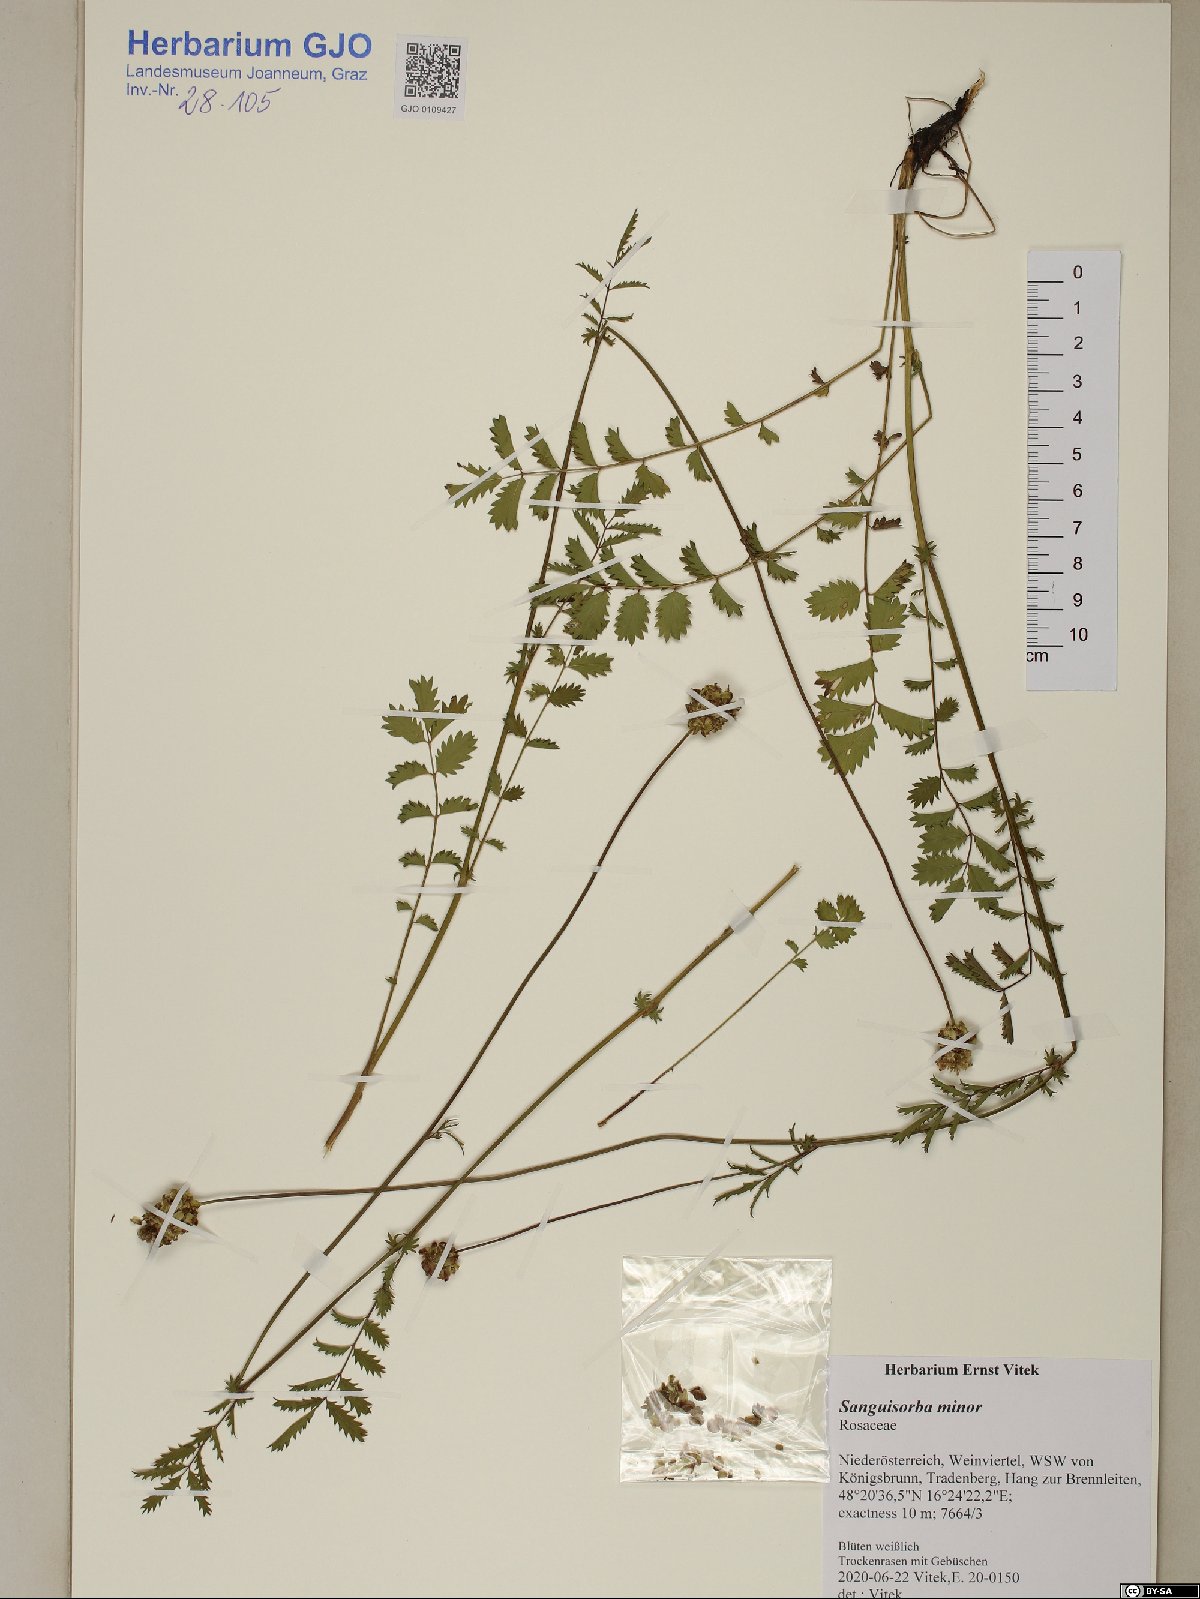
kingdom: Plantae
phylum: Tracheophyta
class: Magnoliopsida
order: Rosales
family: Rosaceae
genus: Poterium
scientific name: Poterium sanguisorba
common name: Salad burnet
